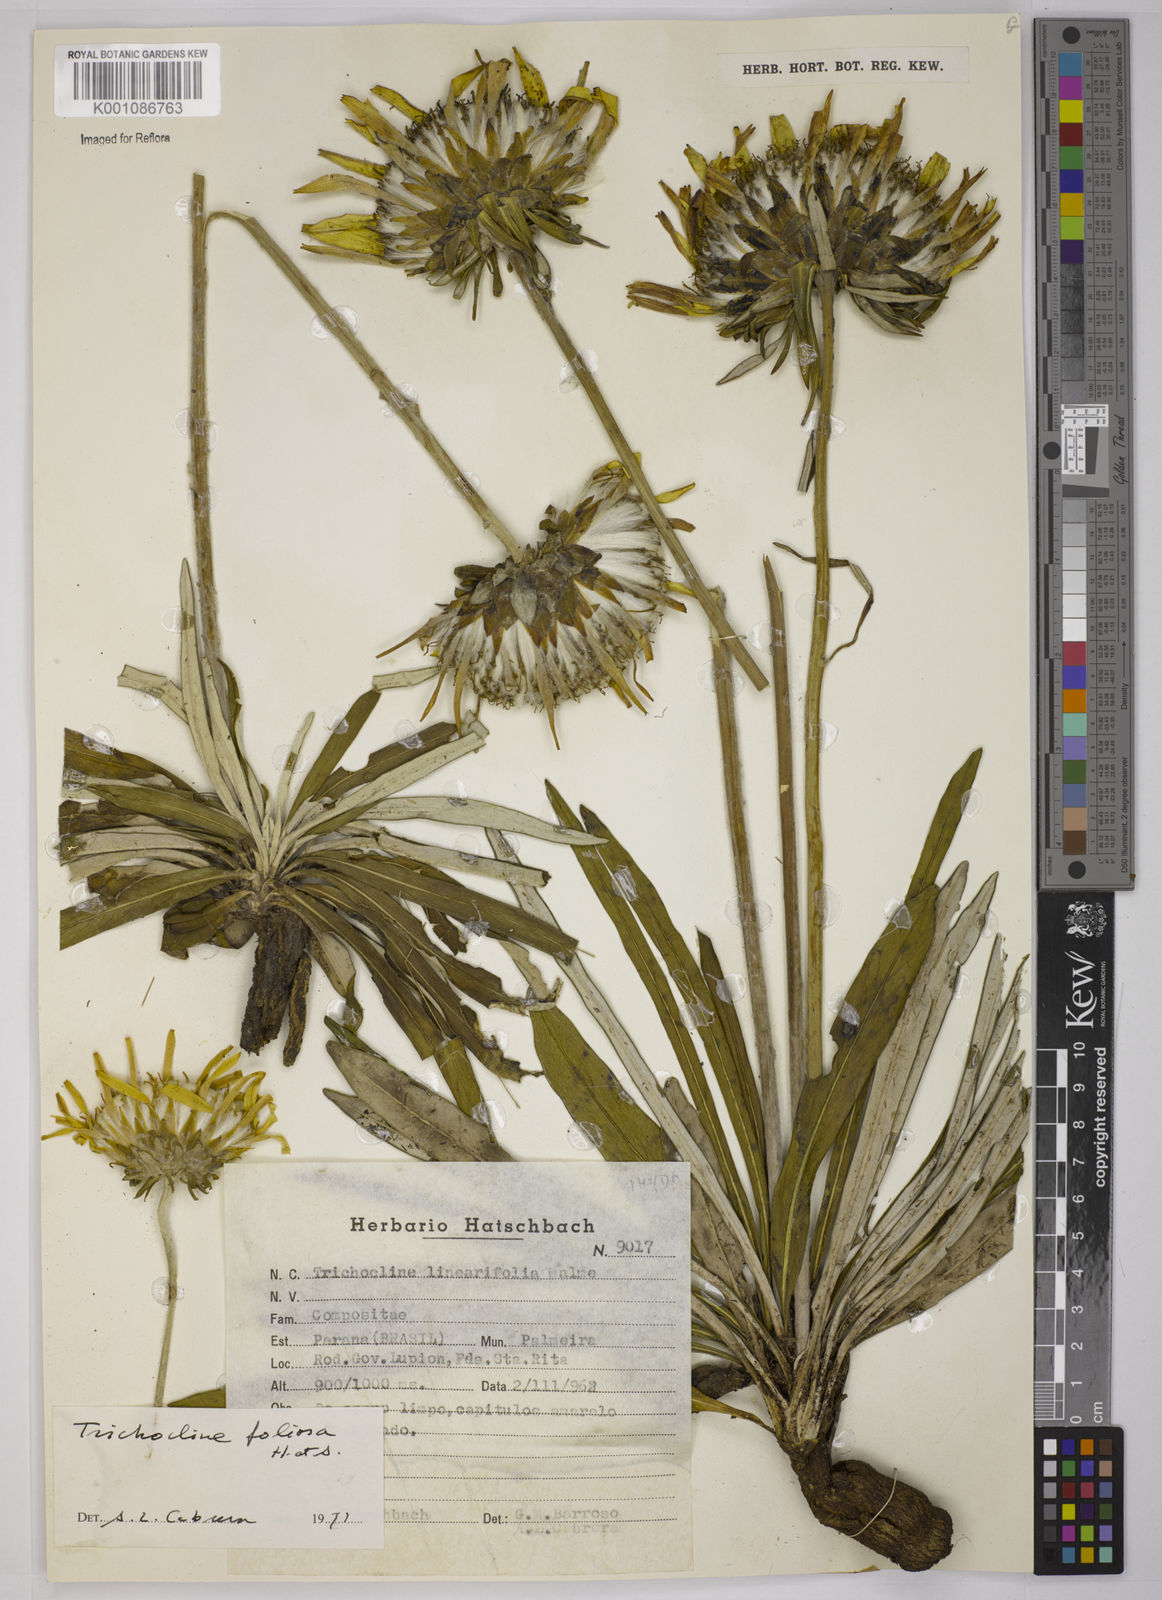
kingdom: Plantae
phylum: Tracheophyta
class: Magnoliopsida
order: Asterales
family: Asteraceae
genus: Trichocline
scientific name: Trichocline linearifolia
